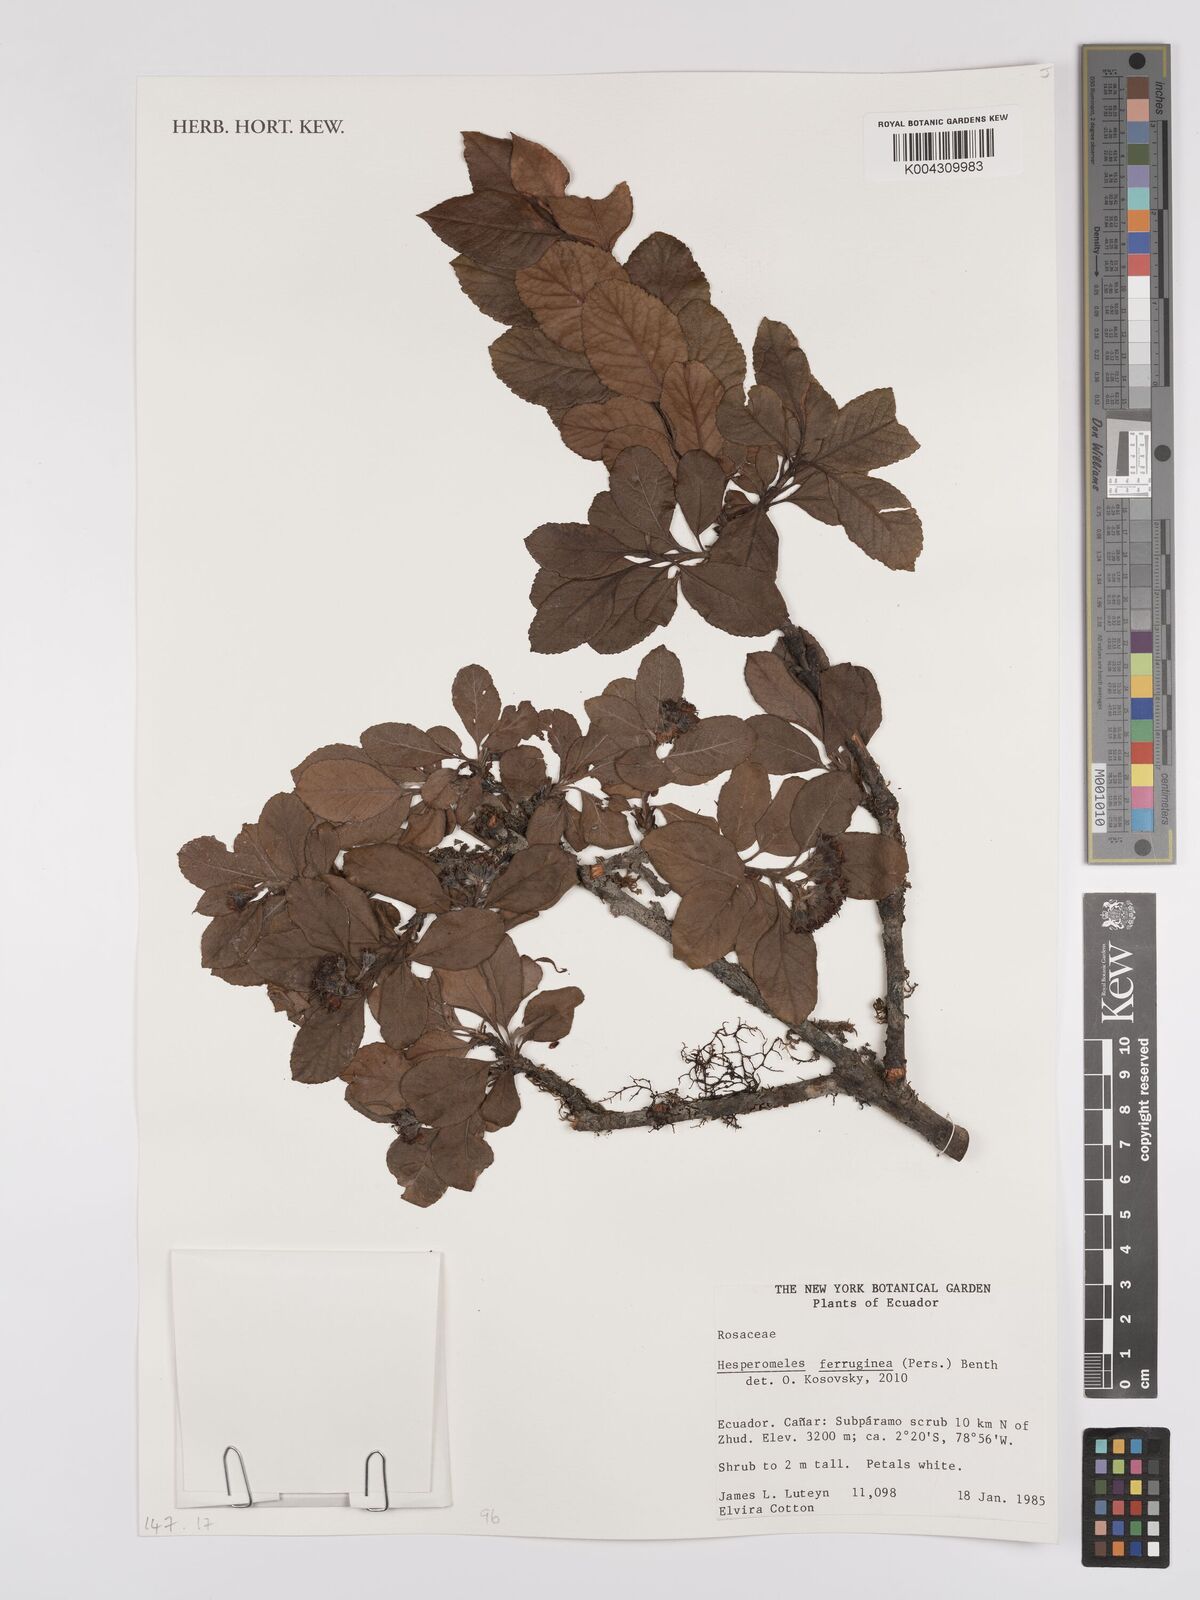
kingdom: Plantae
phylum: Tracheophyta
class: Magnoliopsida
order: Rosales
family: Rosaceae
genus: Hesperomeles
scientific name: Hesperomeles ferruginea
